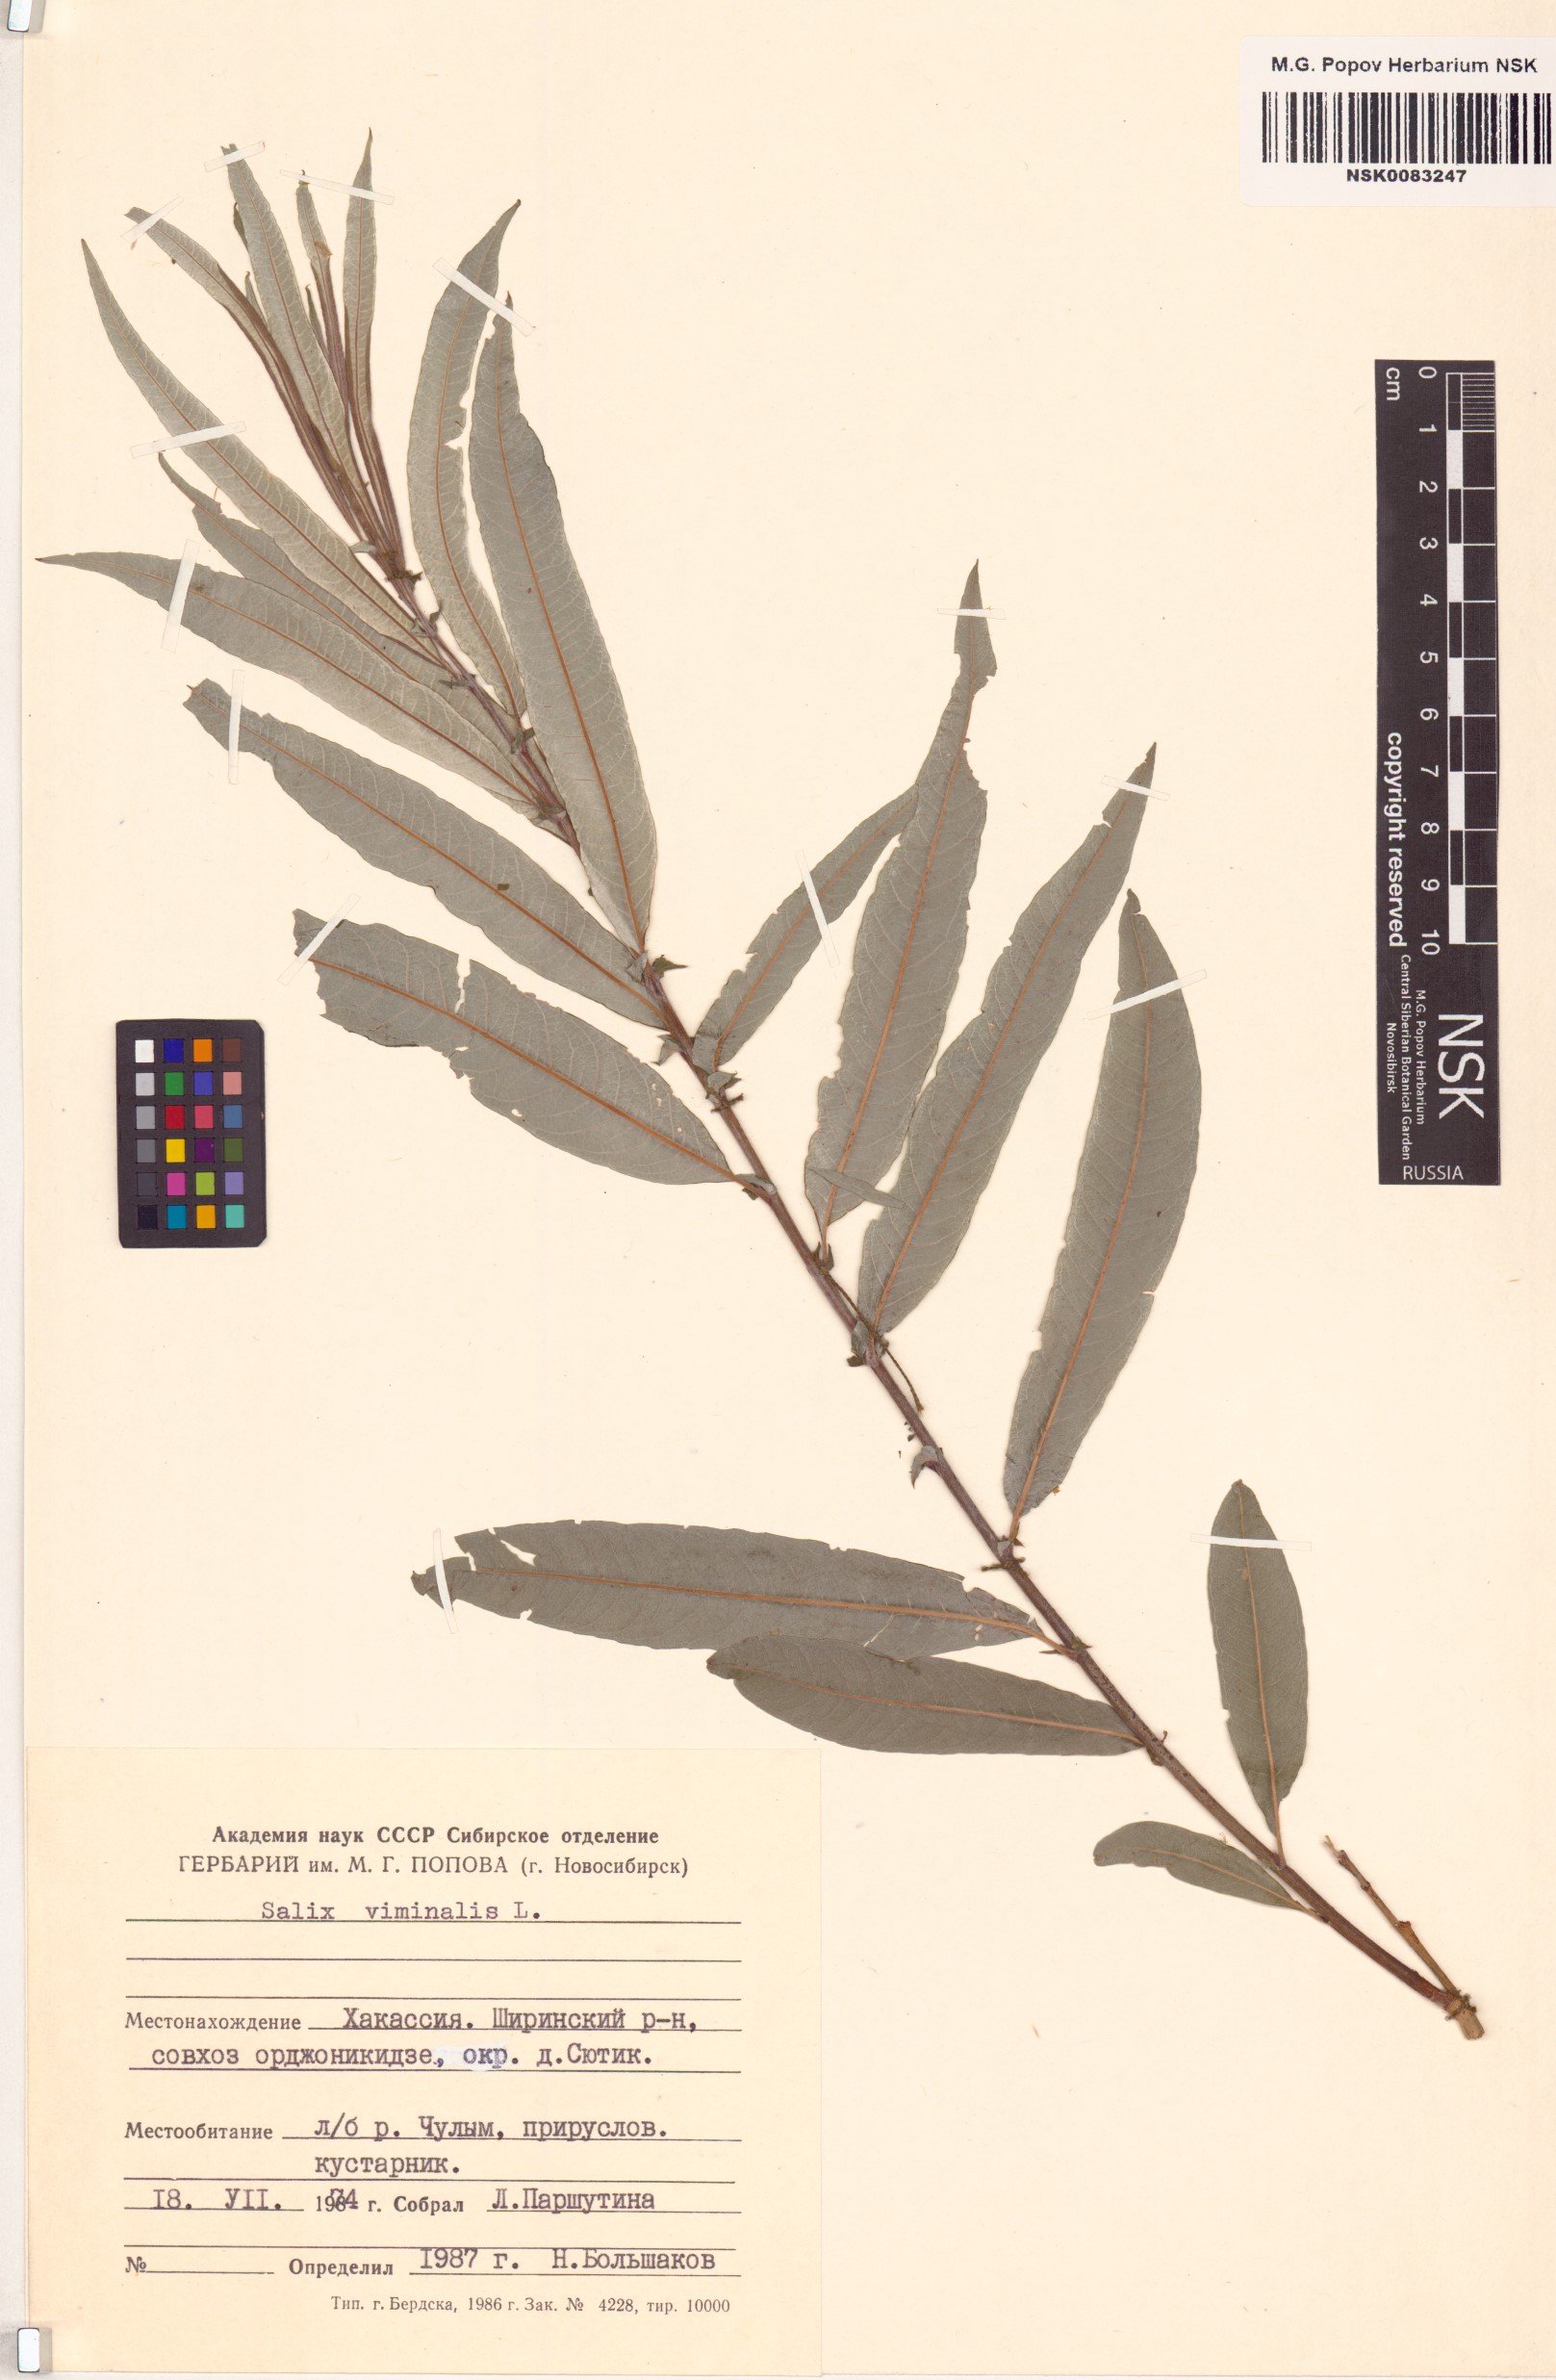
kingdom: Plantae
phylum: Tracheophyta
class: Magnoliopsida
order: Malpighiales
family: Salicaceae
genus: Salix
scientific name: Salix viminalis
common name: Osier
